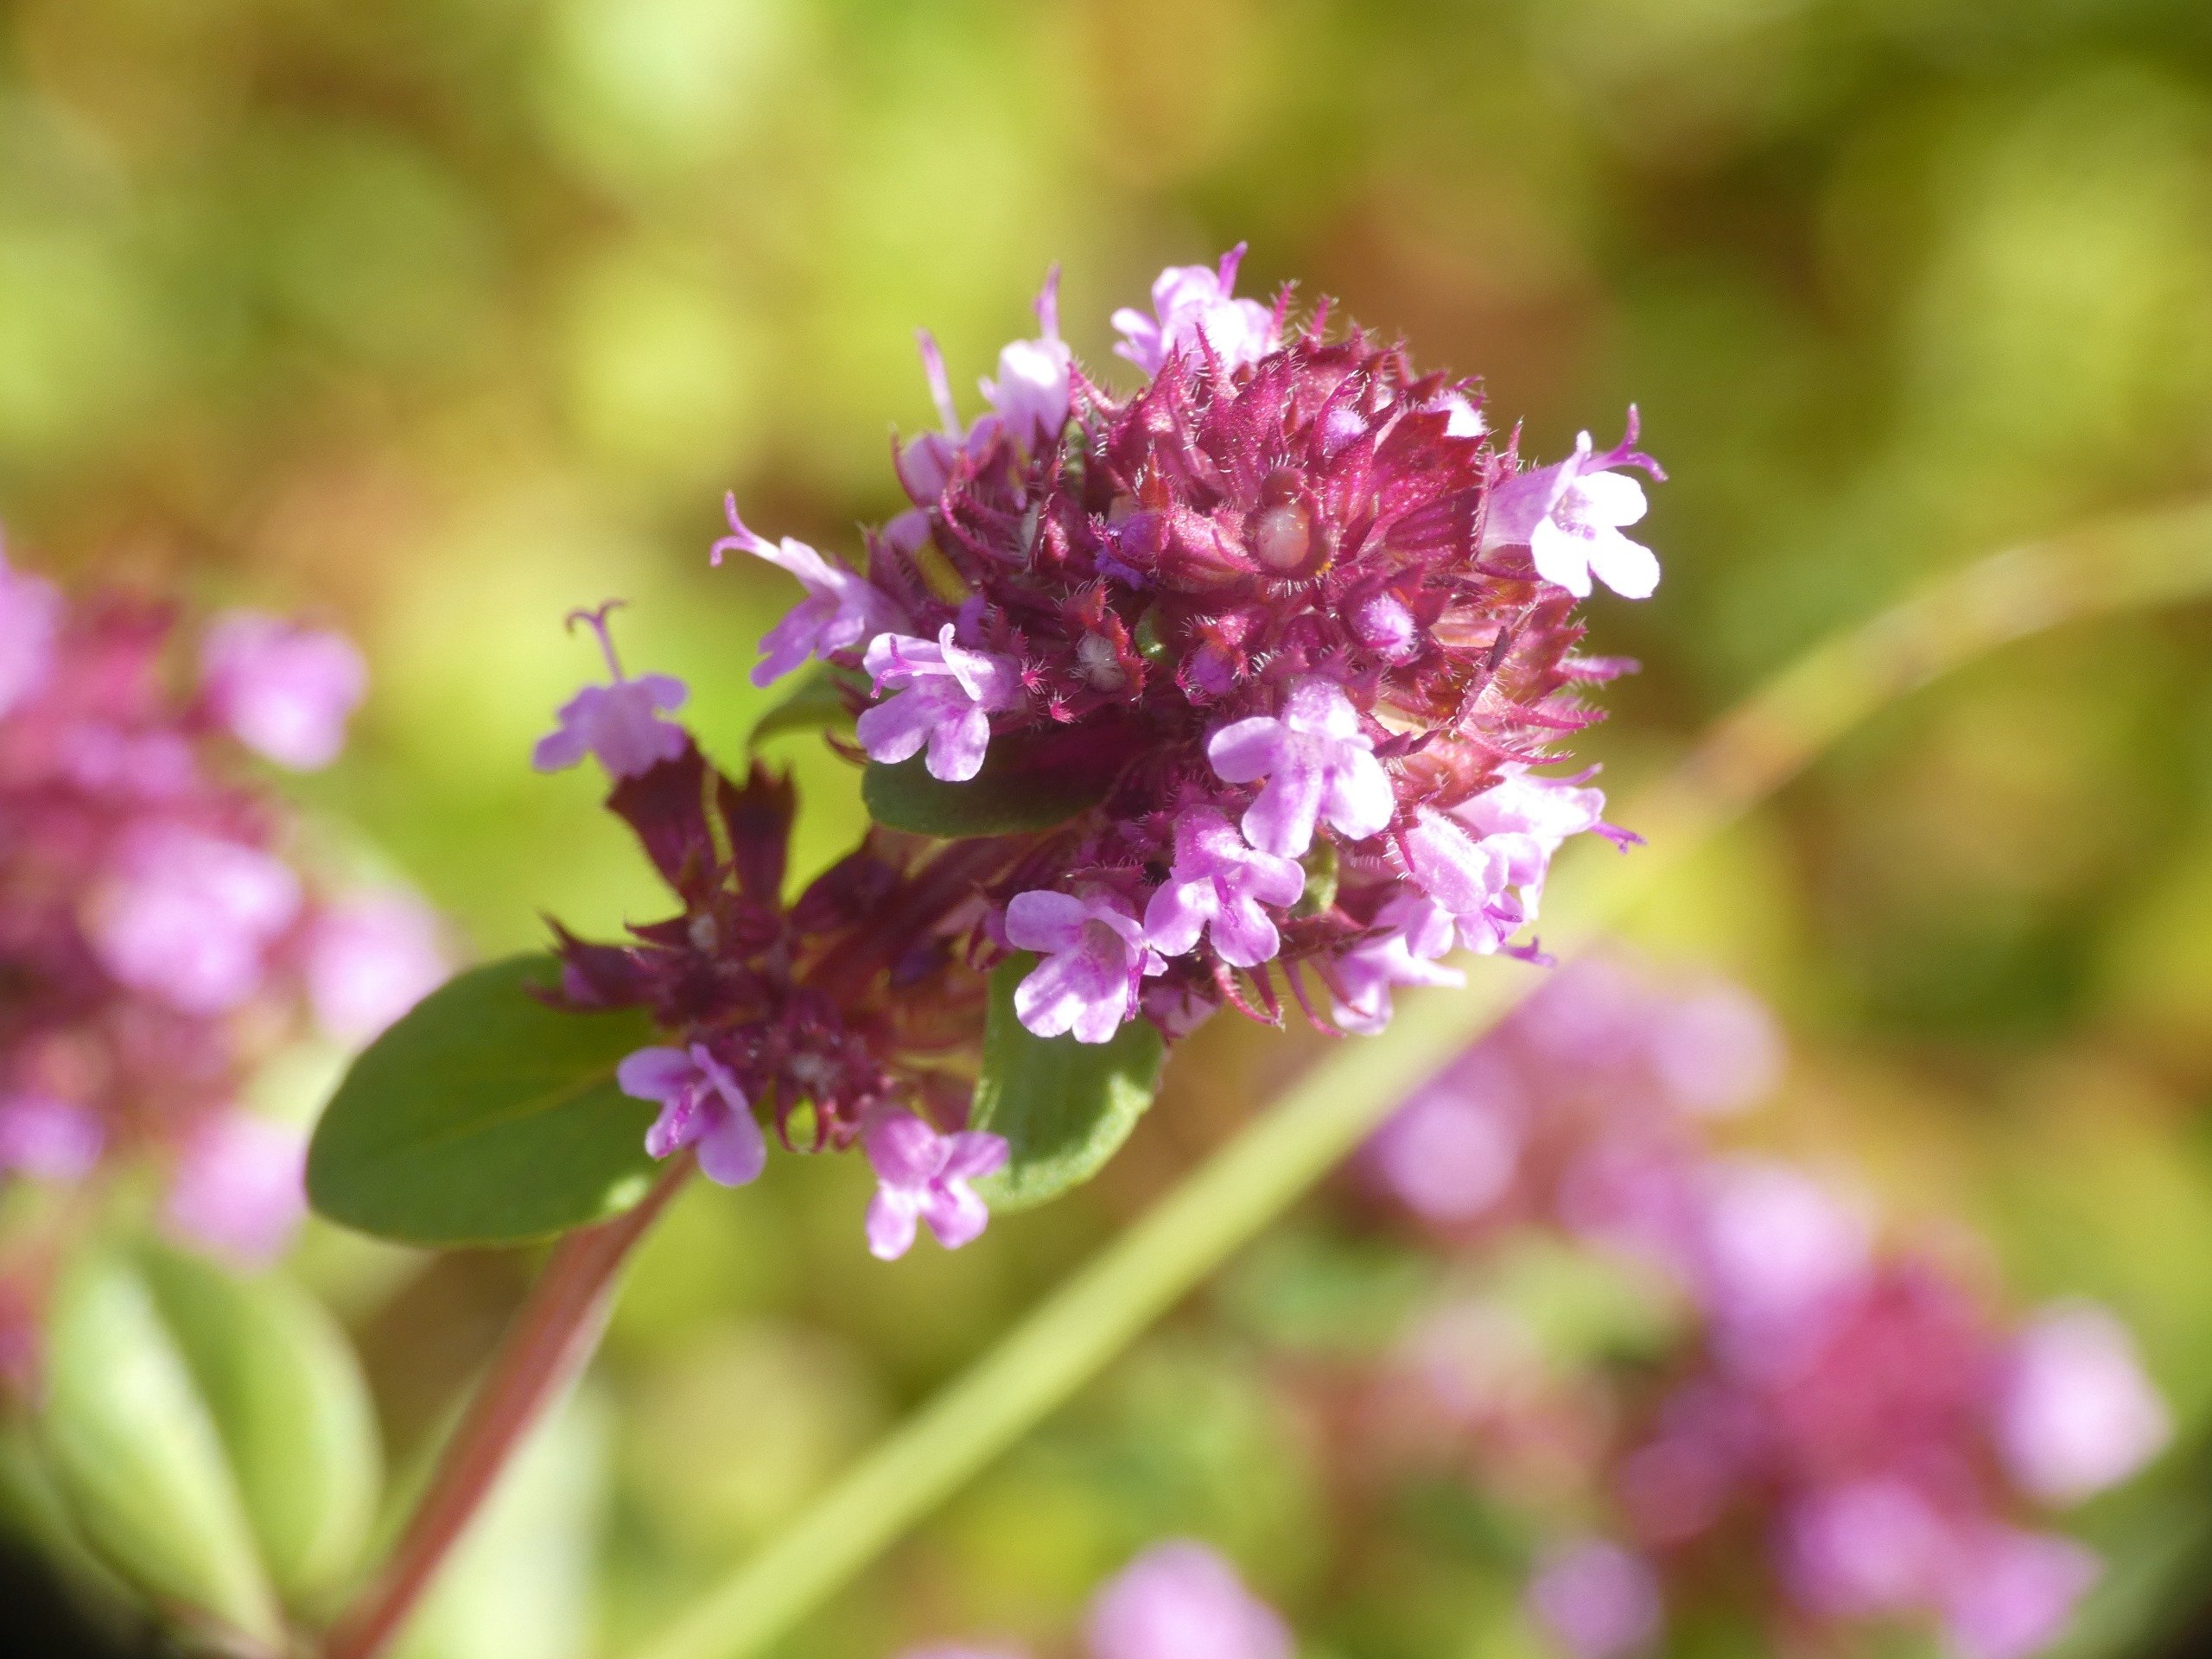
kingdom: Plantae
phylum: Tracheophyta
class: Magnoliopsida
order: Lamiales
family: Lamiaceae
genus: Thymus
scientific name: Thymus pulegioides
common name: Bredbladet timian
